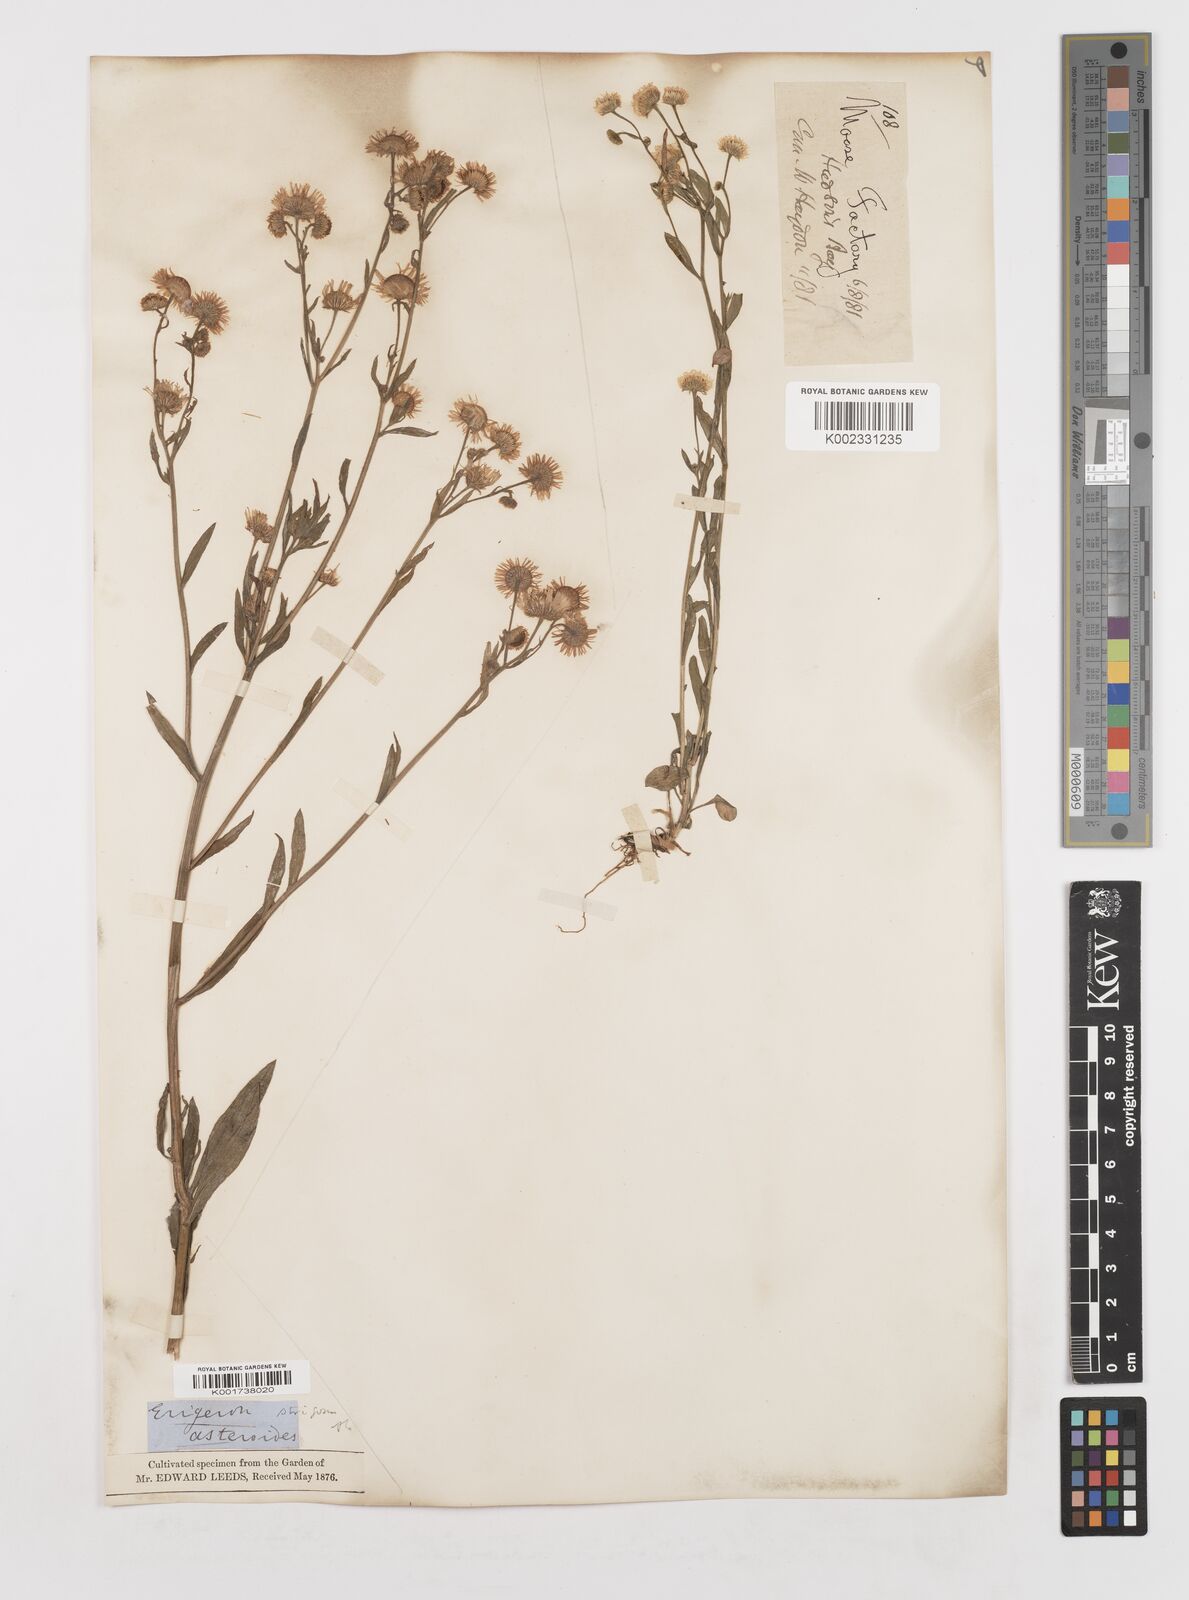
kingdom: Plantae
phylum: Tracheophyta
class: Magnoliopsida
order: Asterales
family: Asteraceae
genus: Erigeron
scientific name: Erigeron strigosus
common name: Common eastern fleabane
